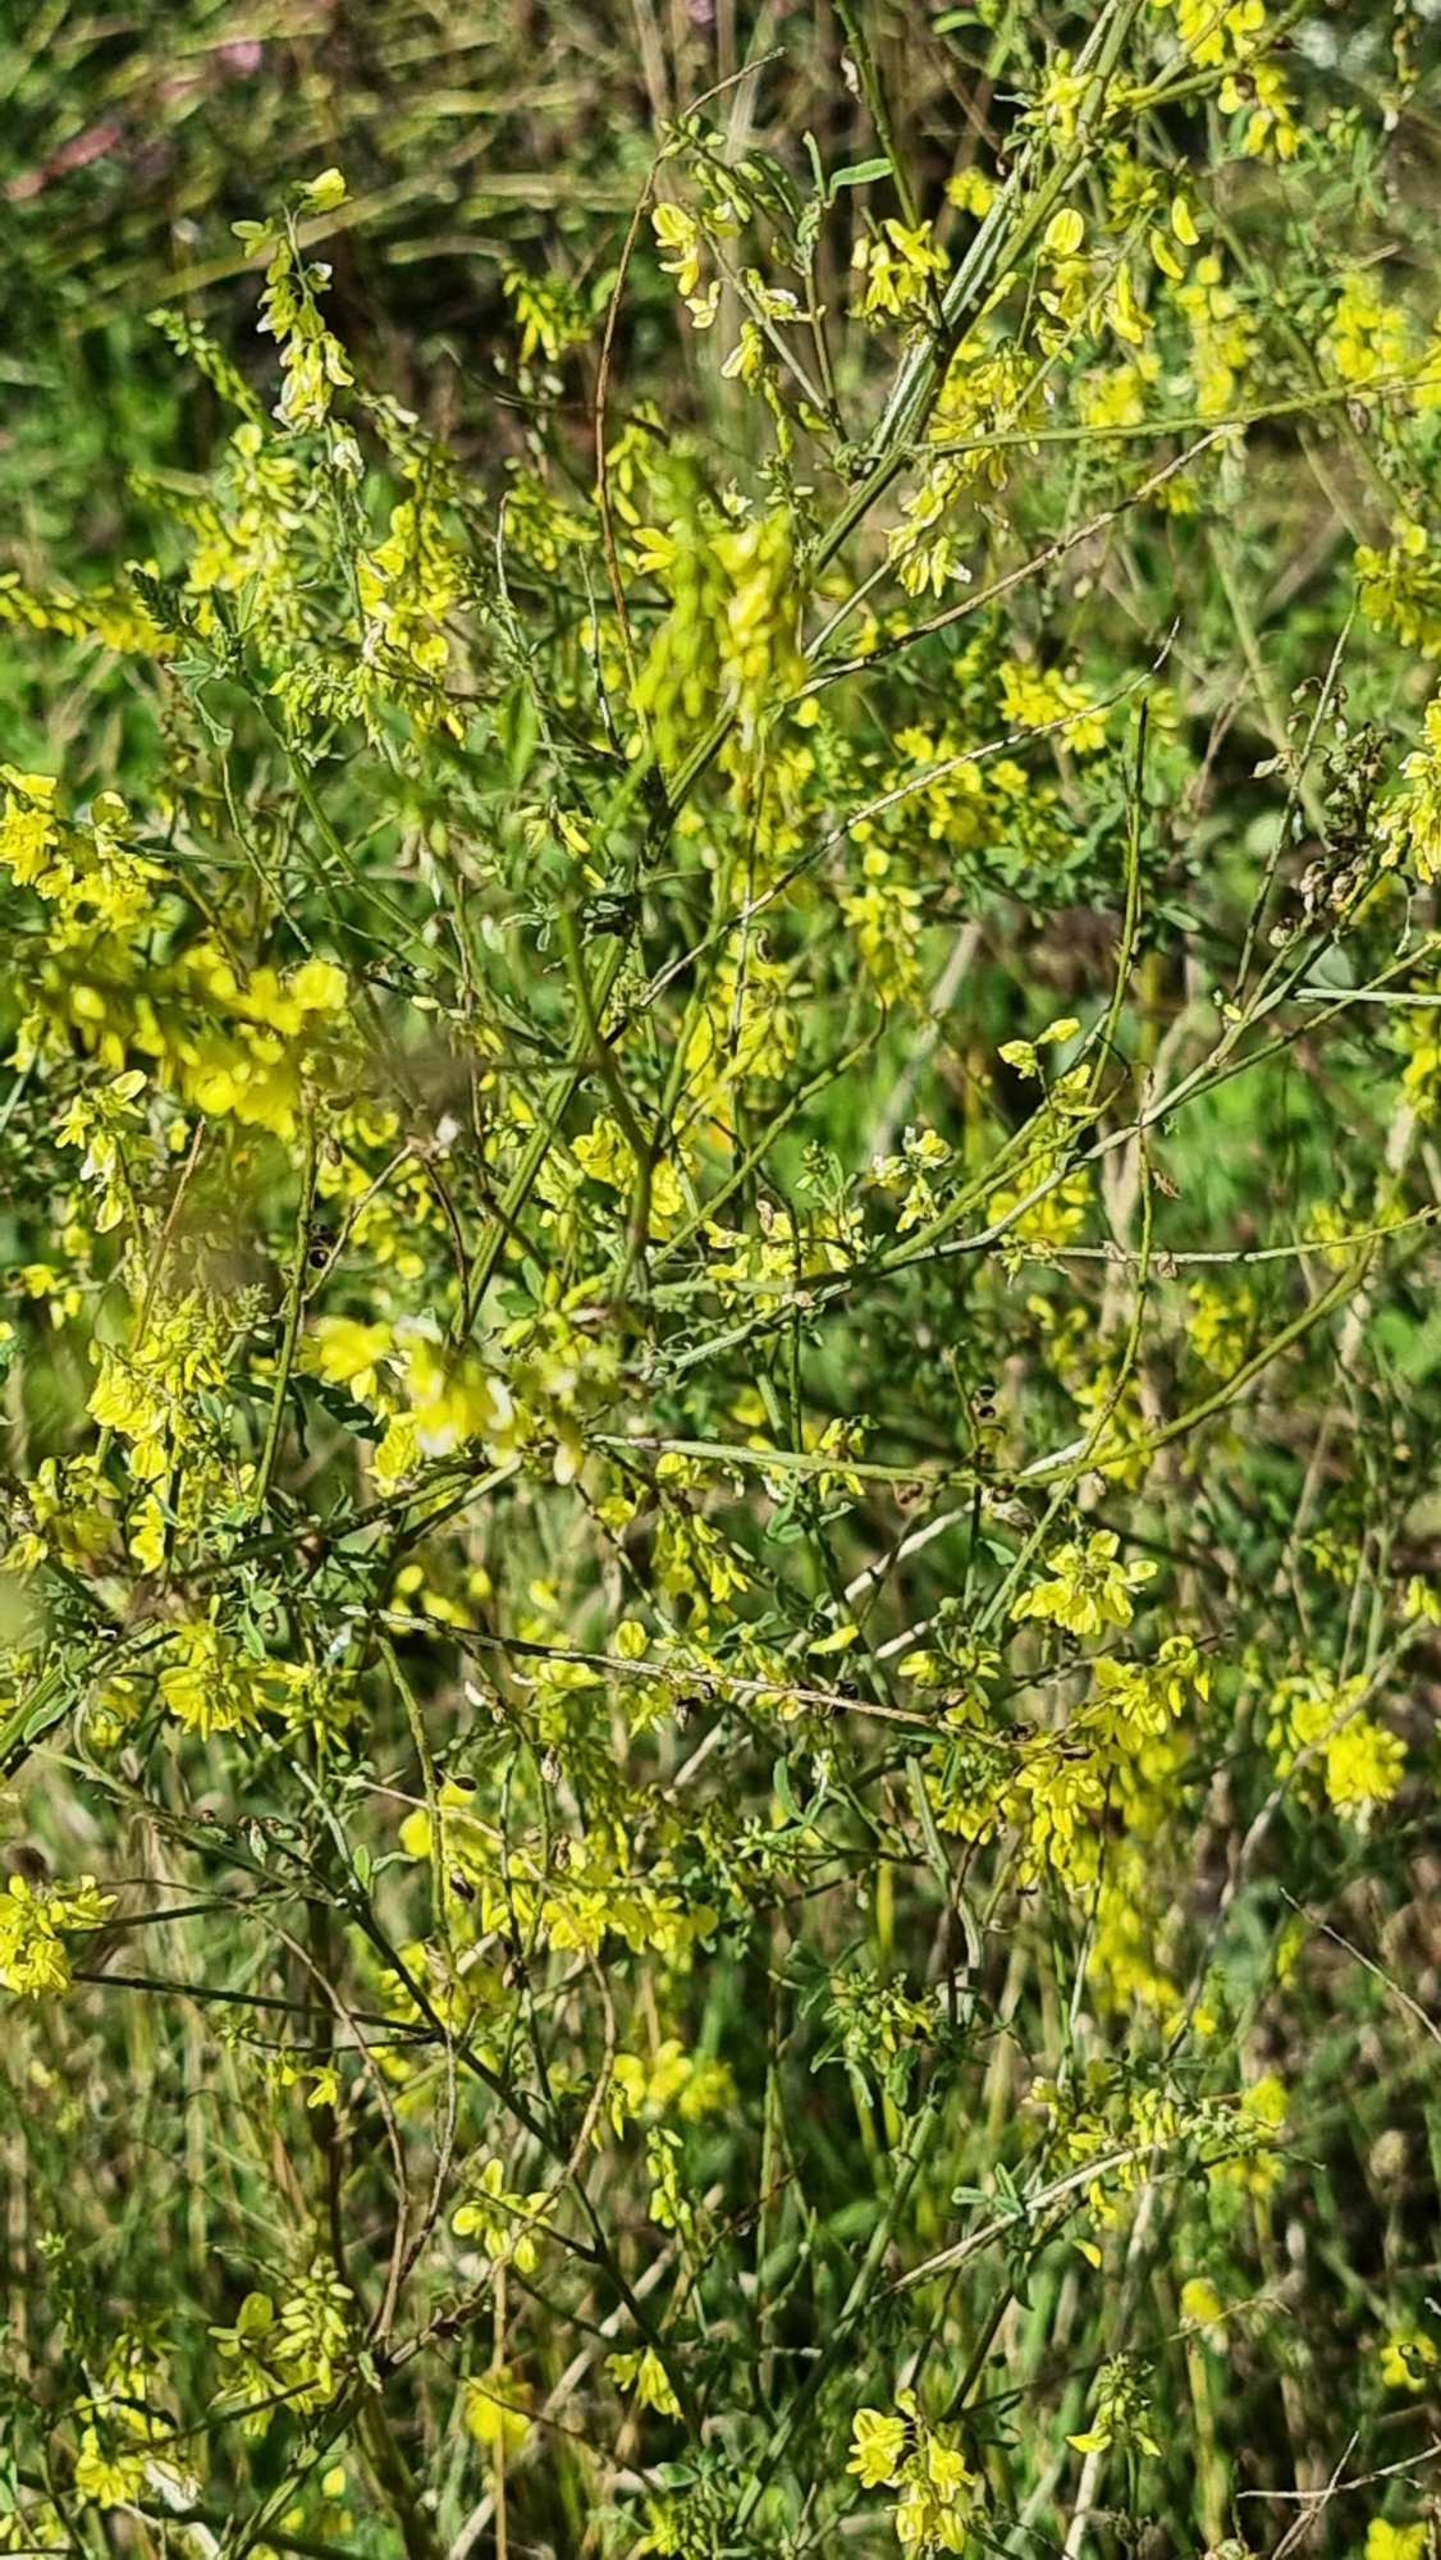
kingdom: Plantae
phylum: Tracheophyta
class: Magnoliopsida
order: Fabales
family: Fabaceae
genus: Melilotus
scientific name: Melilotus officinalis
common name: Mark-stenkløver
